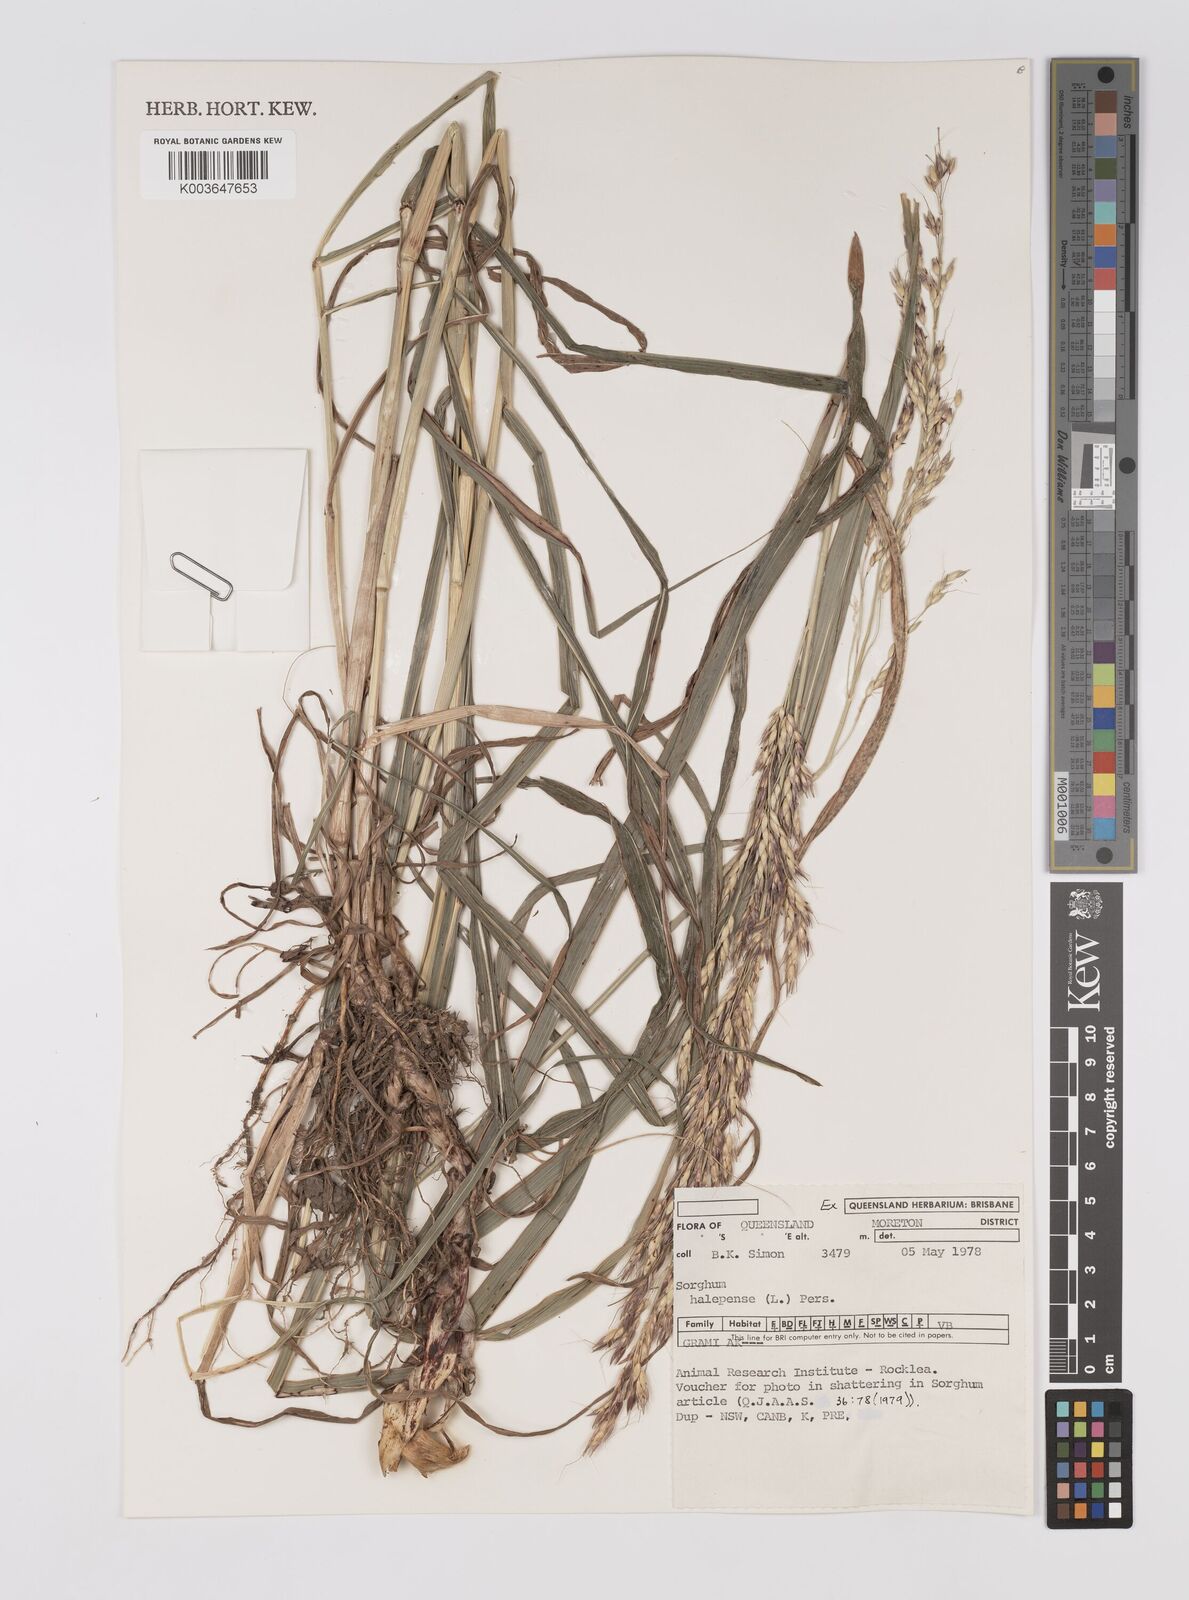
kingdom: Plantae
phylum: Tracheophyta
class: Liliopsida
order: Poales
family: Poaceae
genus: Sorghum
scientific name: Sorghum halepense
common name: Johnson-grass
